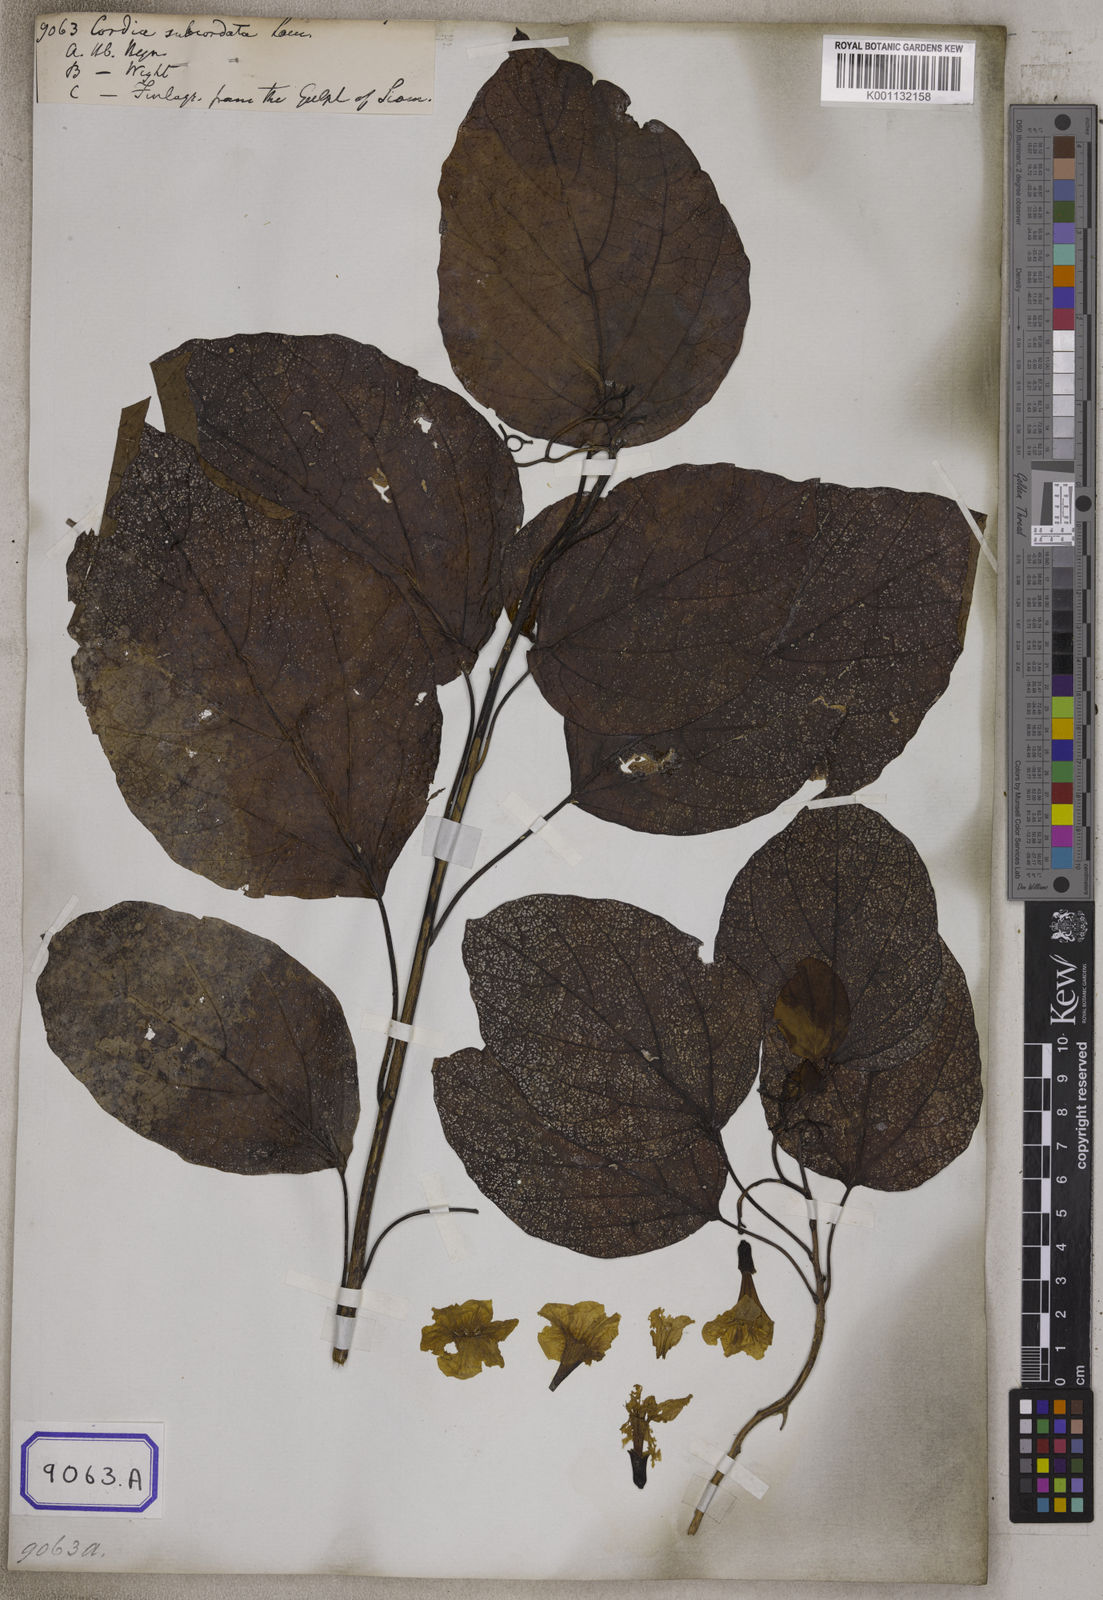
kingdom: Plantae
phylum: Tracheophyta
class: Magnoliopsida
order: Boraginales
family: Cordiaceae
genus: Cordia
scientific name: Cordia subcordata
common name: Mareer
